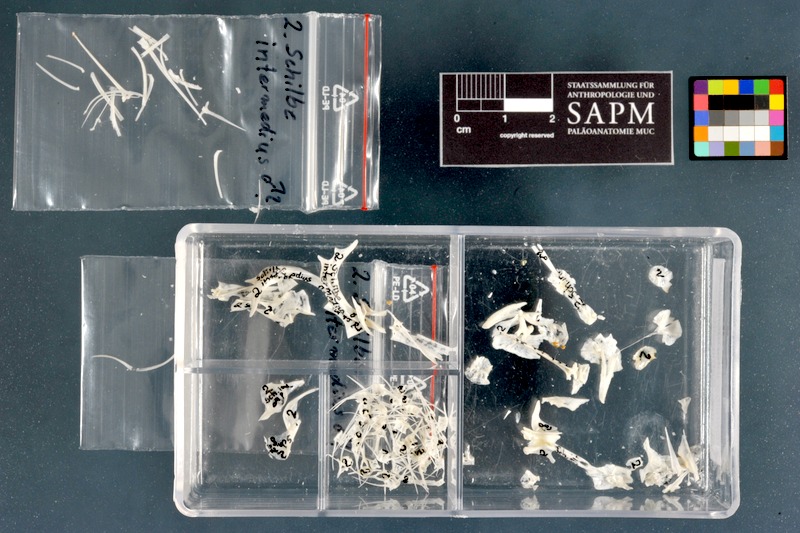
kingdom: Animalia
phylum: Chordata
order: Siluriformes
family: Schilbeidae
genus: Schilbe
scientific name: Schilbe intermedius
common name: Silver catfish
